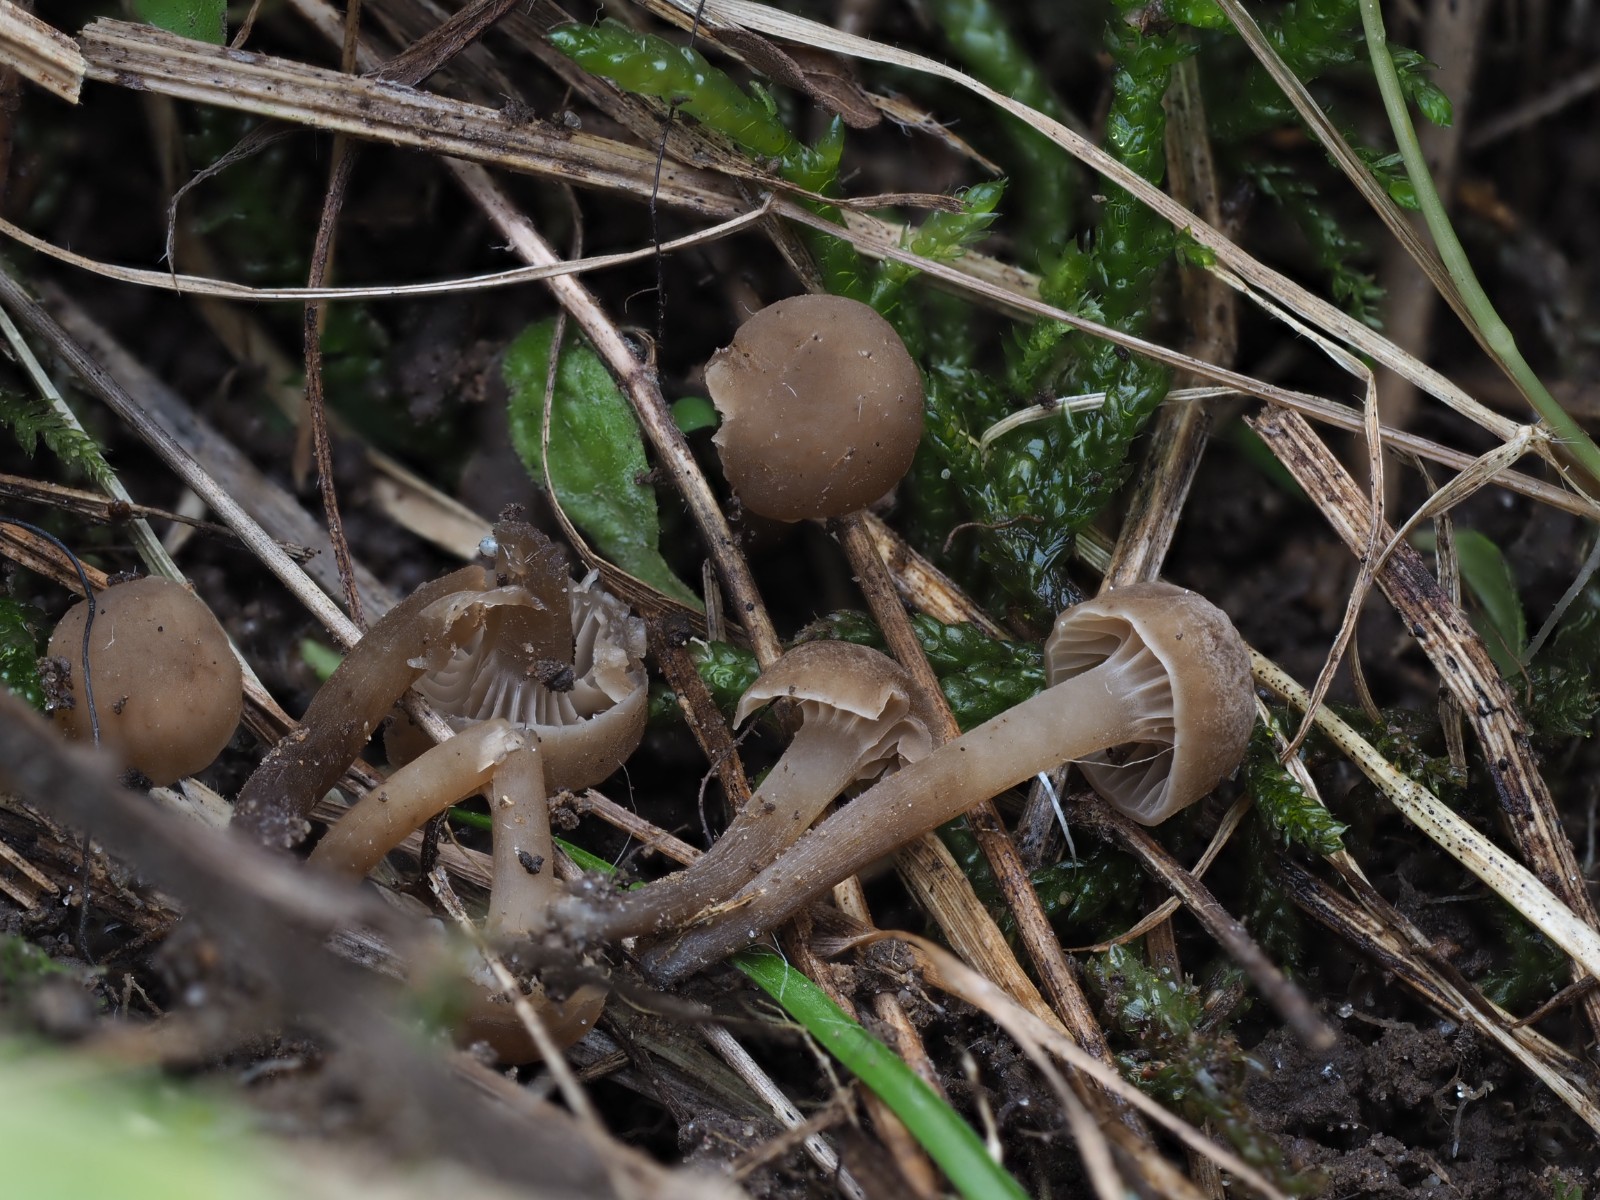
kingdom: Fungi
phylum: Basidiomycota
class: Agaricomycetes
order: Agaricales
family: Clavariaceae
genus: Hodophilus
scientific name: Hodophilus
